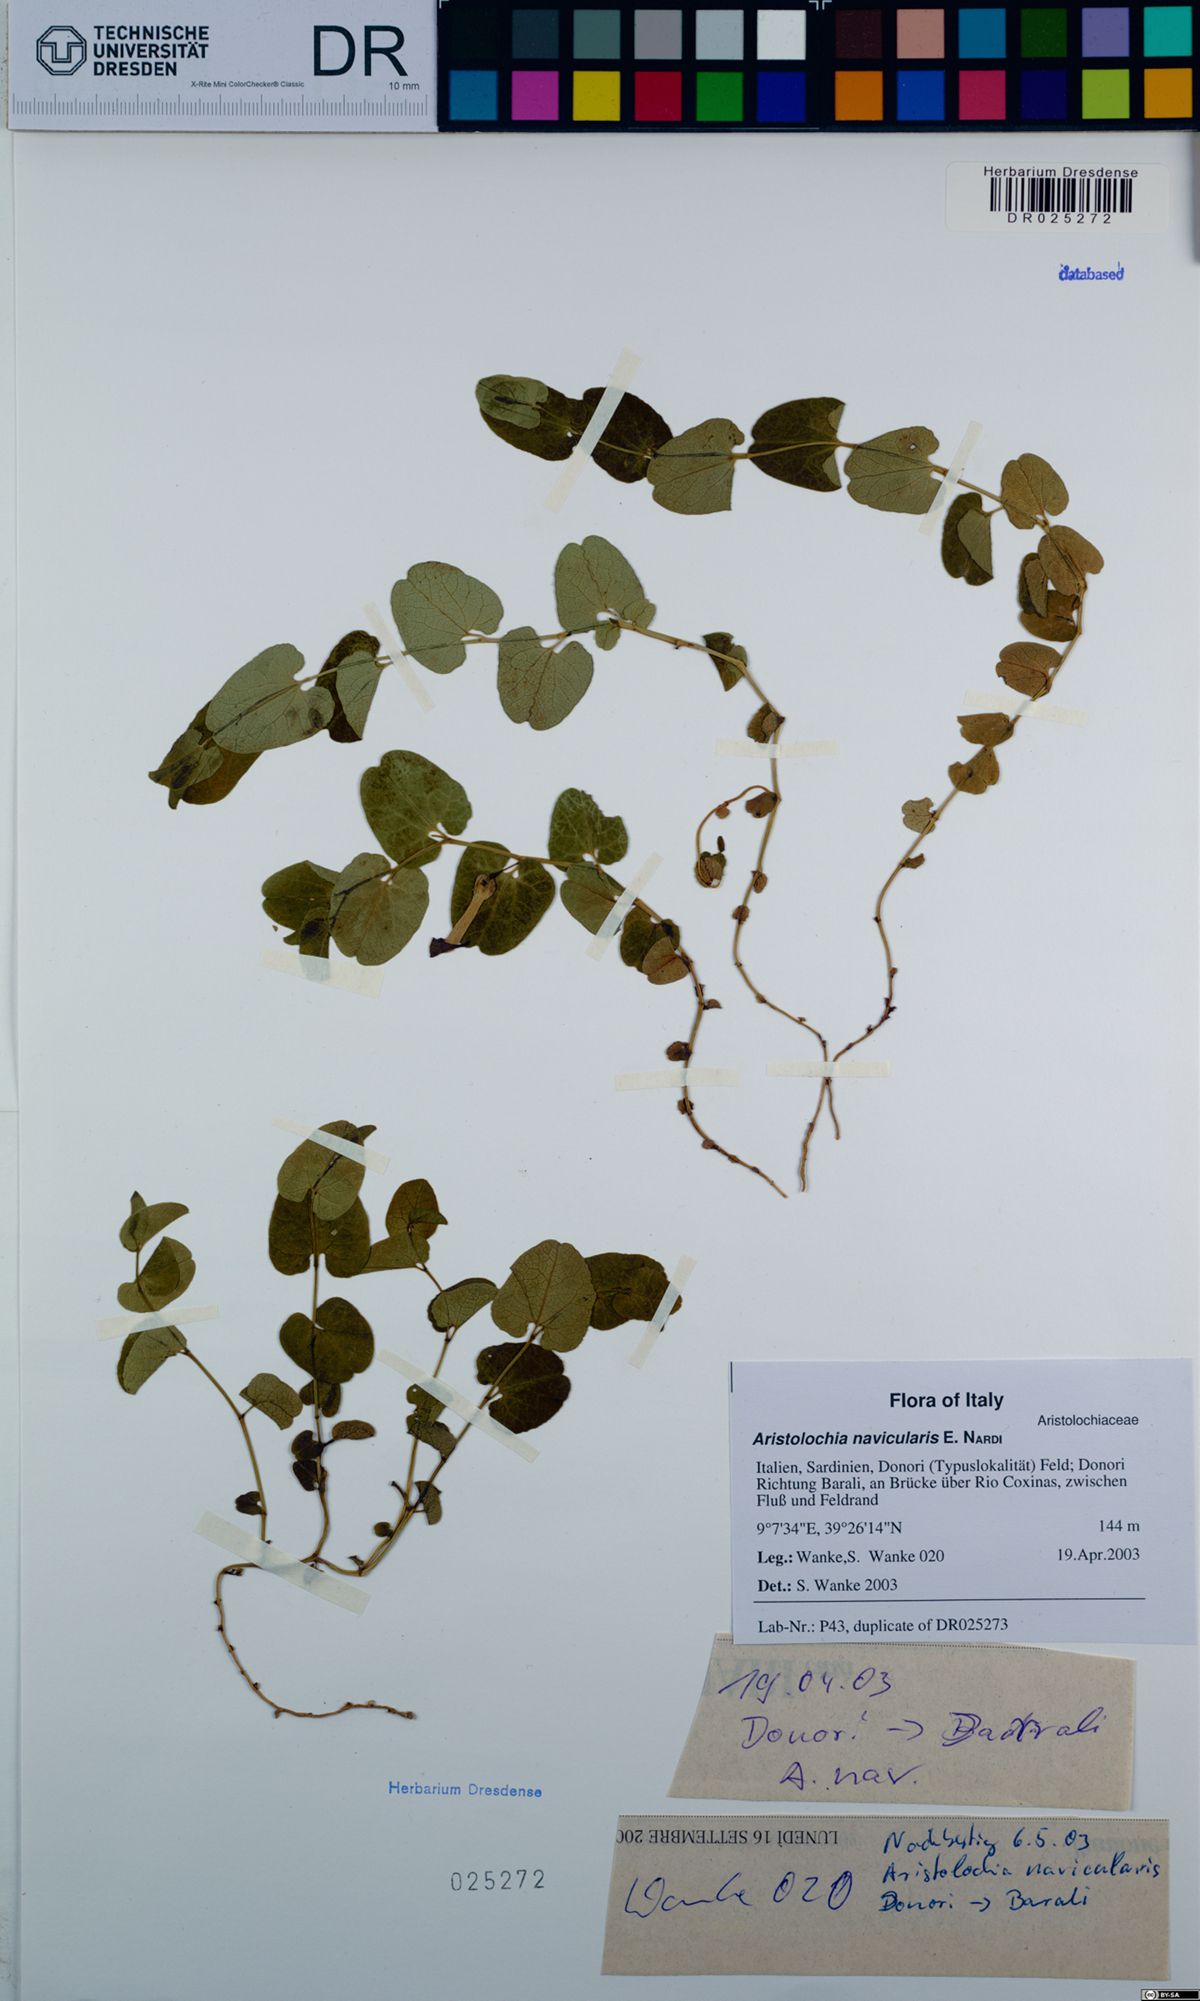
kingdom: Plantae
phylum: Tracheophyta
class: Magnoliopsida
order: Piperales
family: Aristolochiaceae
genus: Aristolochia
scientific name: Aristolochia navicularis
